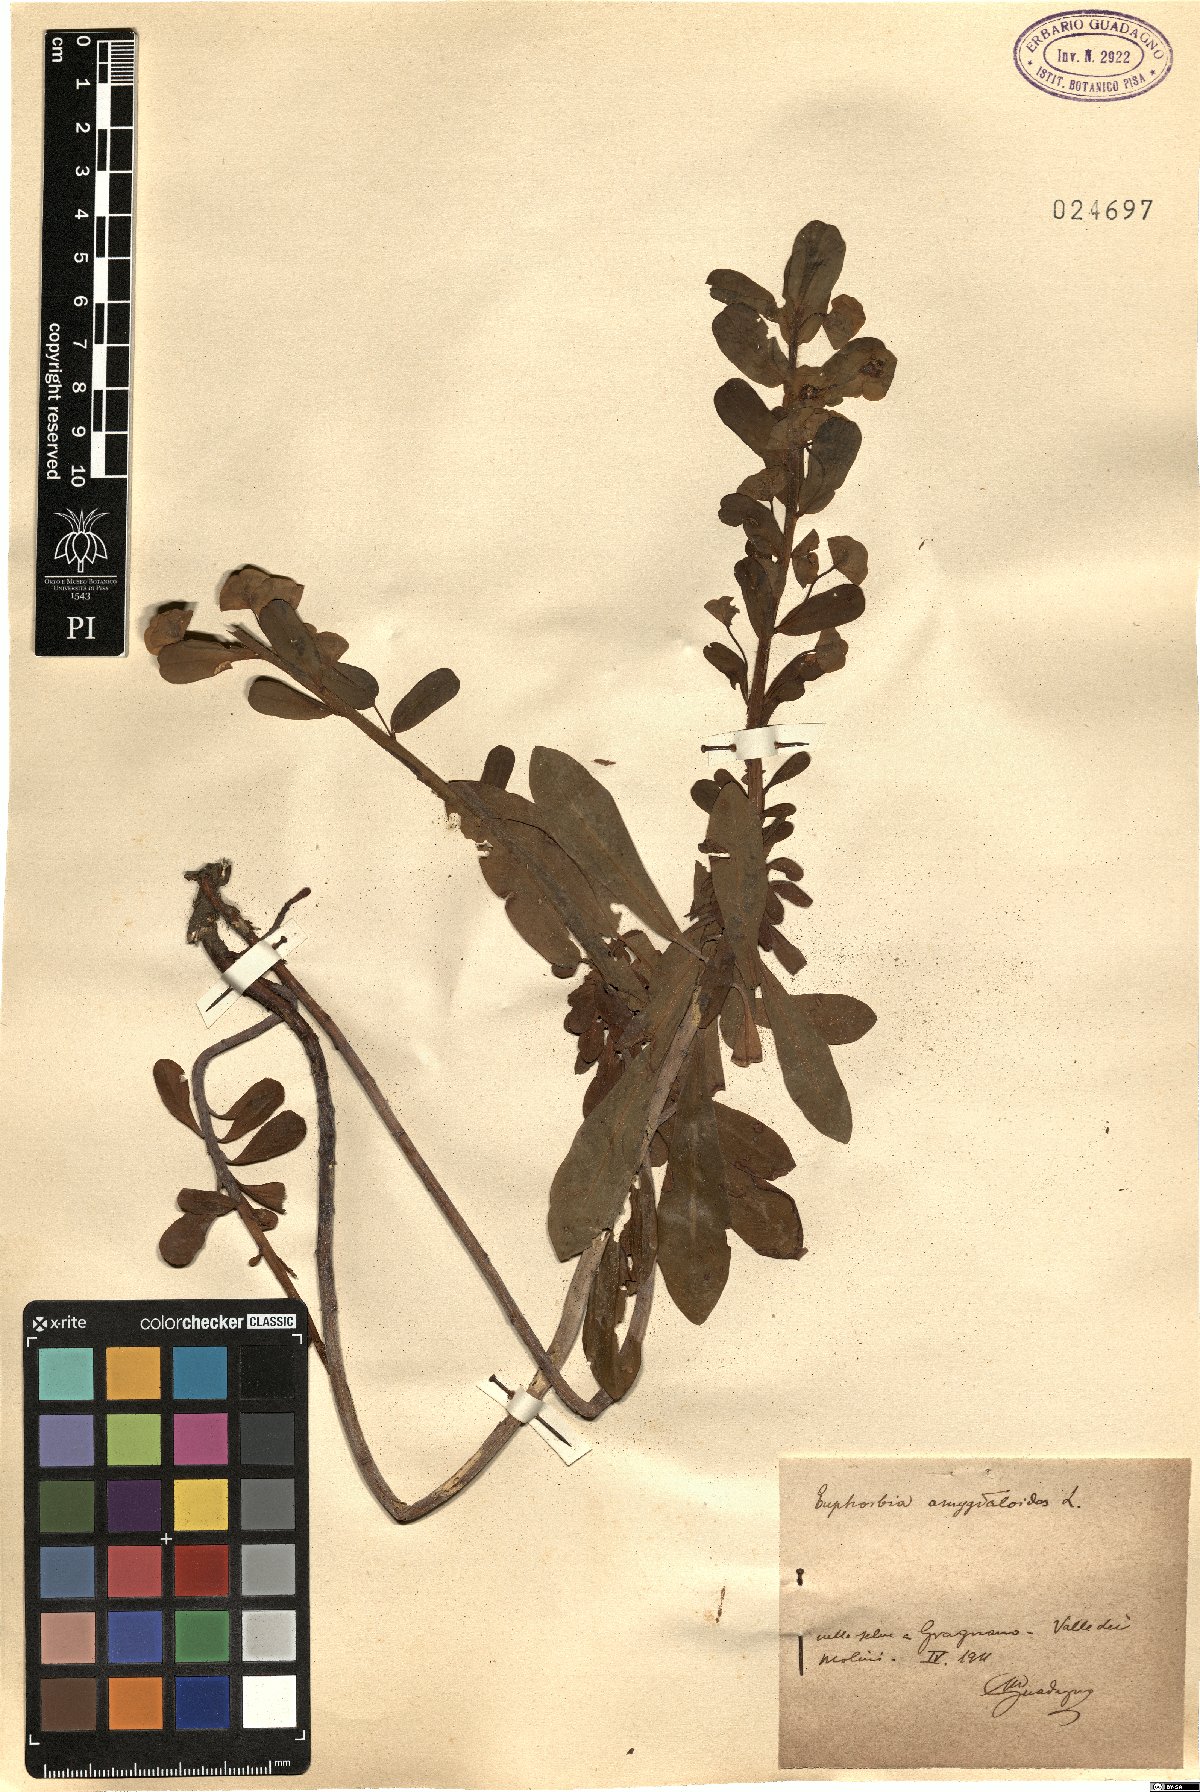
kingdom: Plantae
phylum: Tracheophyta
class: Magnoliopsida
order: Malpighiales
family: Euphorbiaceae
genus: Euphorbia
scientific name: Euphorbia amygdaloides
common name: Wood spurge
